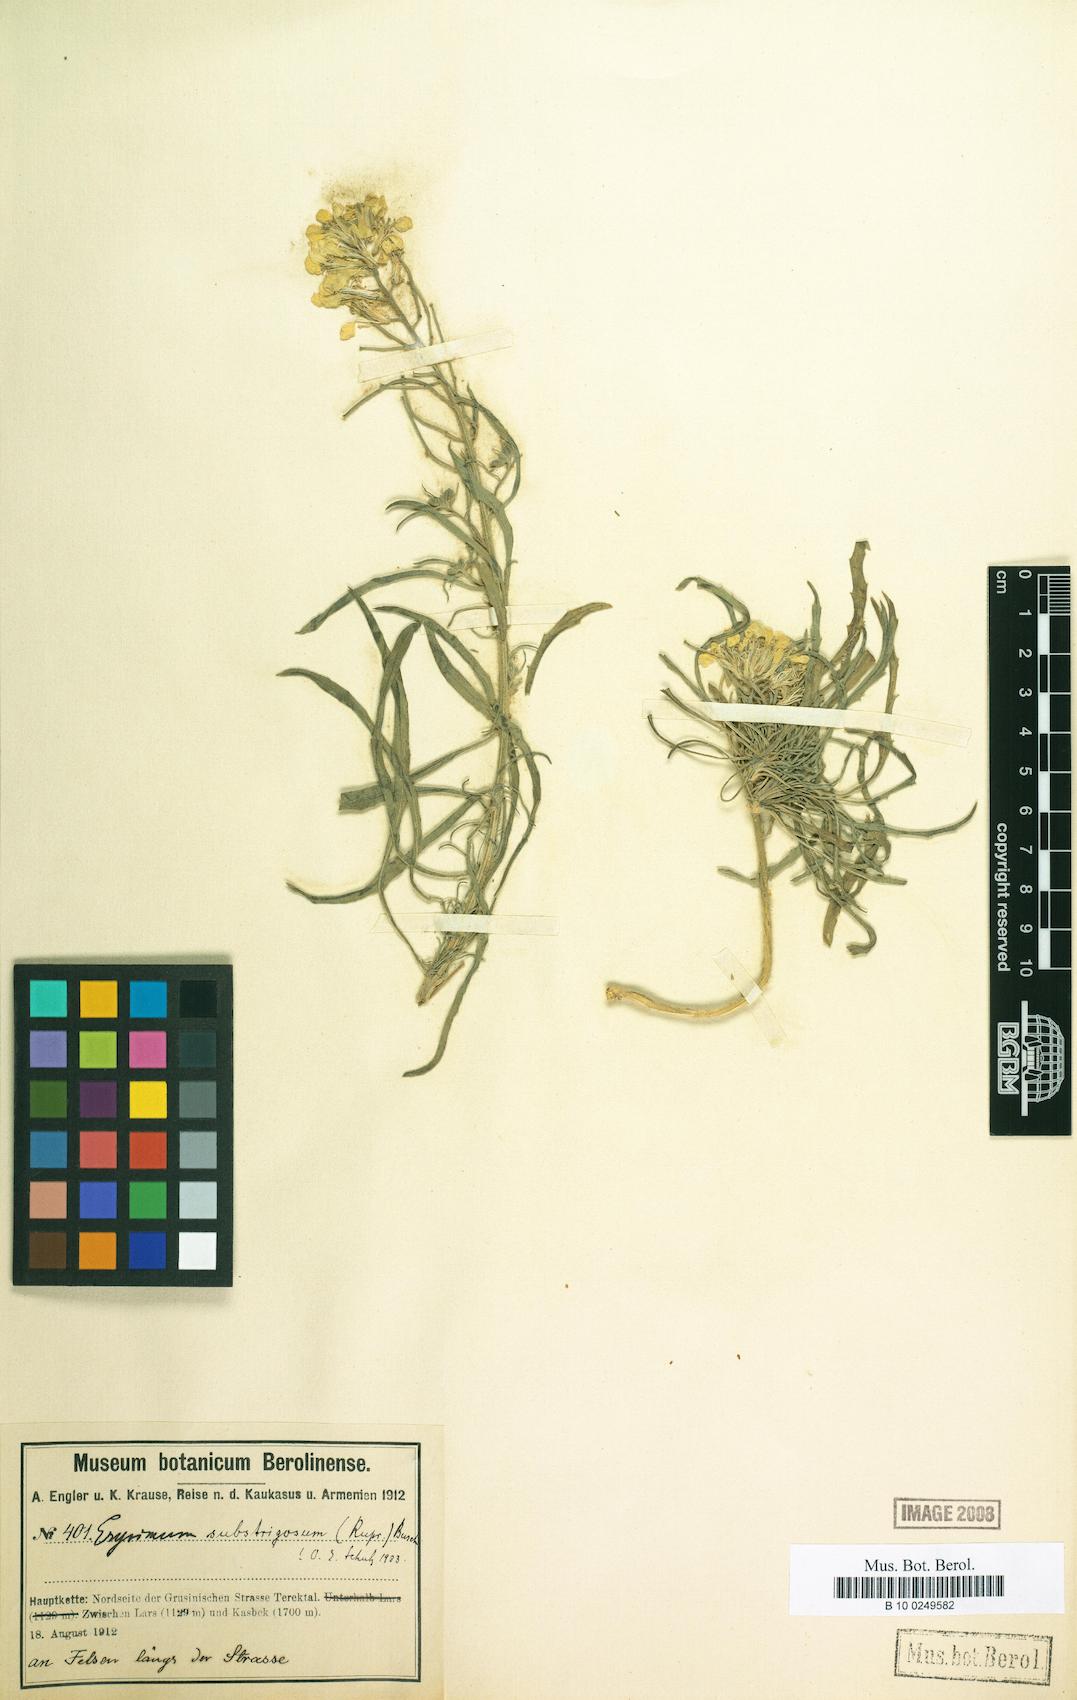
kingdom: Plantae
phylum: Tracheophyta
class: Magnoliopsida
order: Brassicales
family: Brassicaceae
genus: Erysimum
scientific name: Erysimum substrigosum
